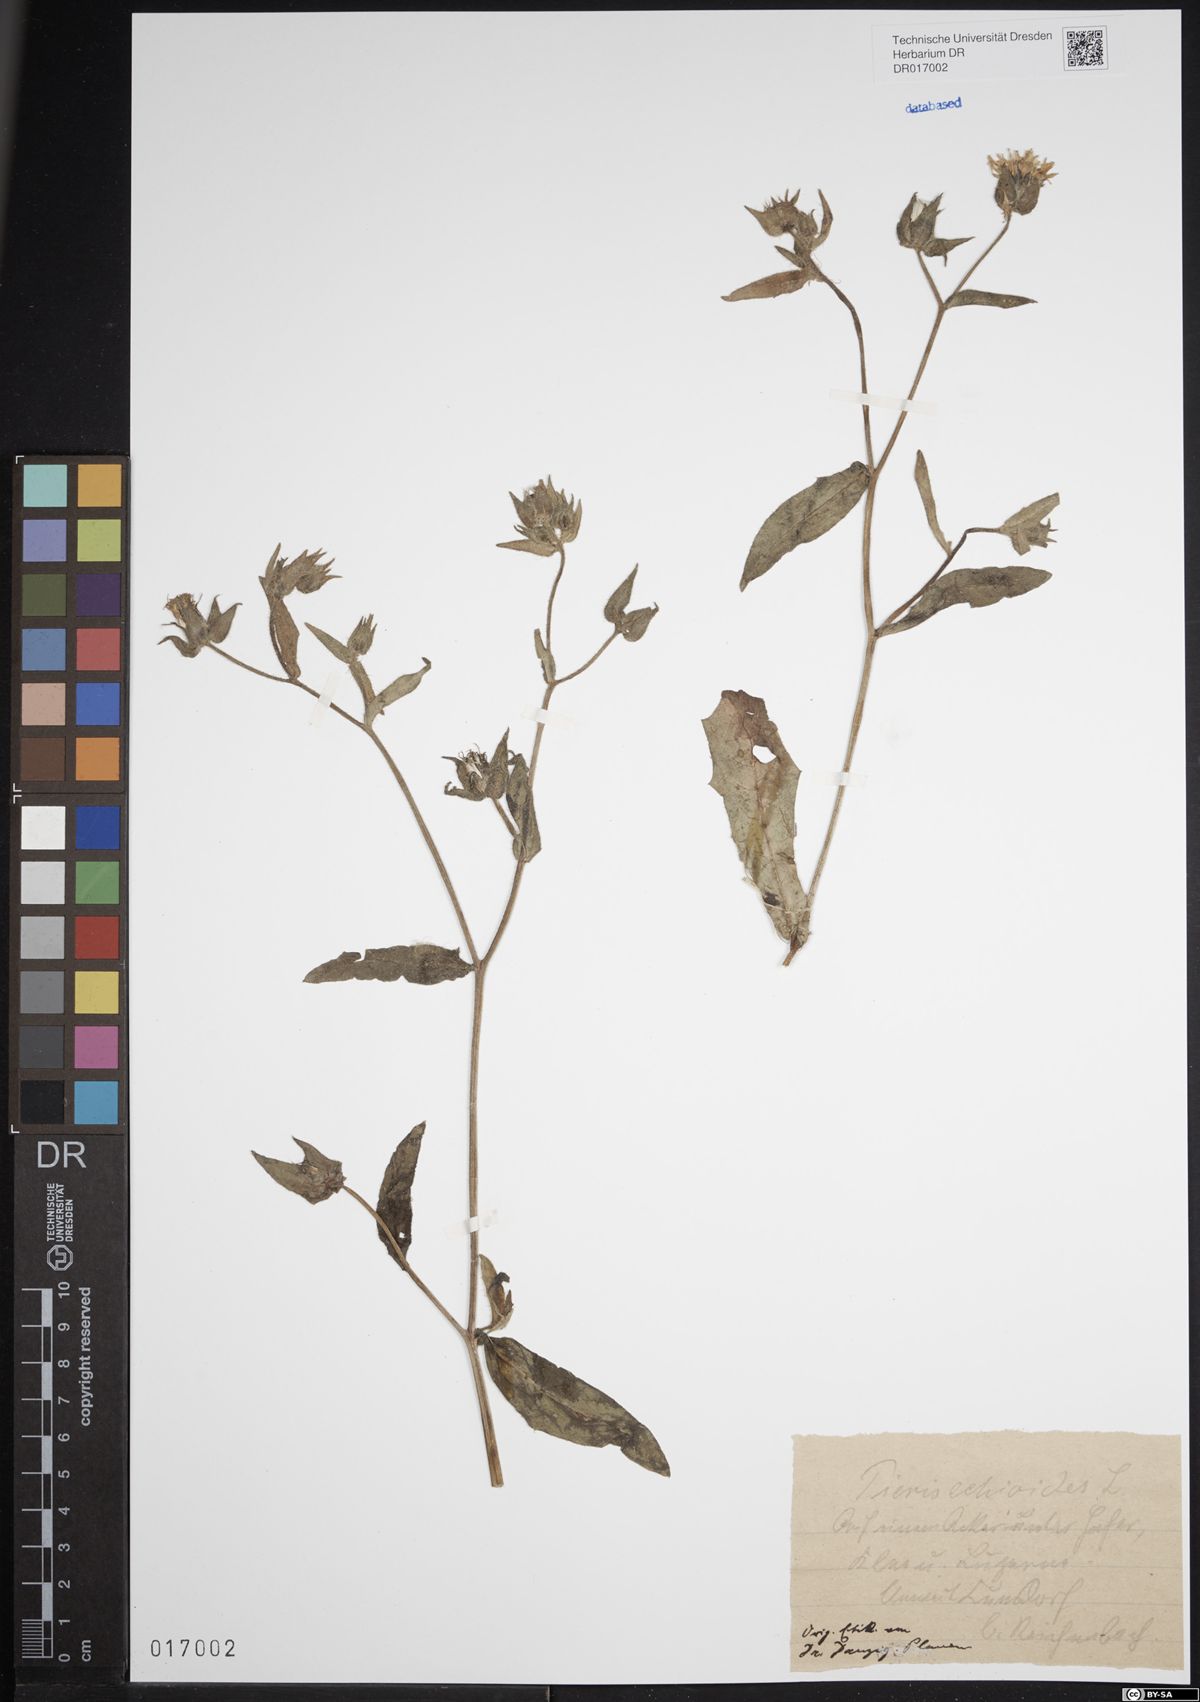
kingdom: Plantae
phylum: Tracheophyta
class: Magnoliopsida
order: Asterales
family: Asteraceae
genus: Helminthotheca
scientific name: Helminthotheca echioides
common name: Ox-tongue
